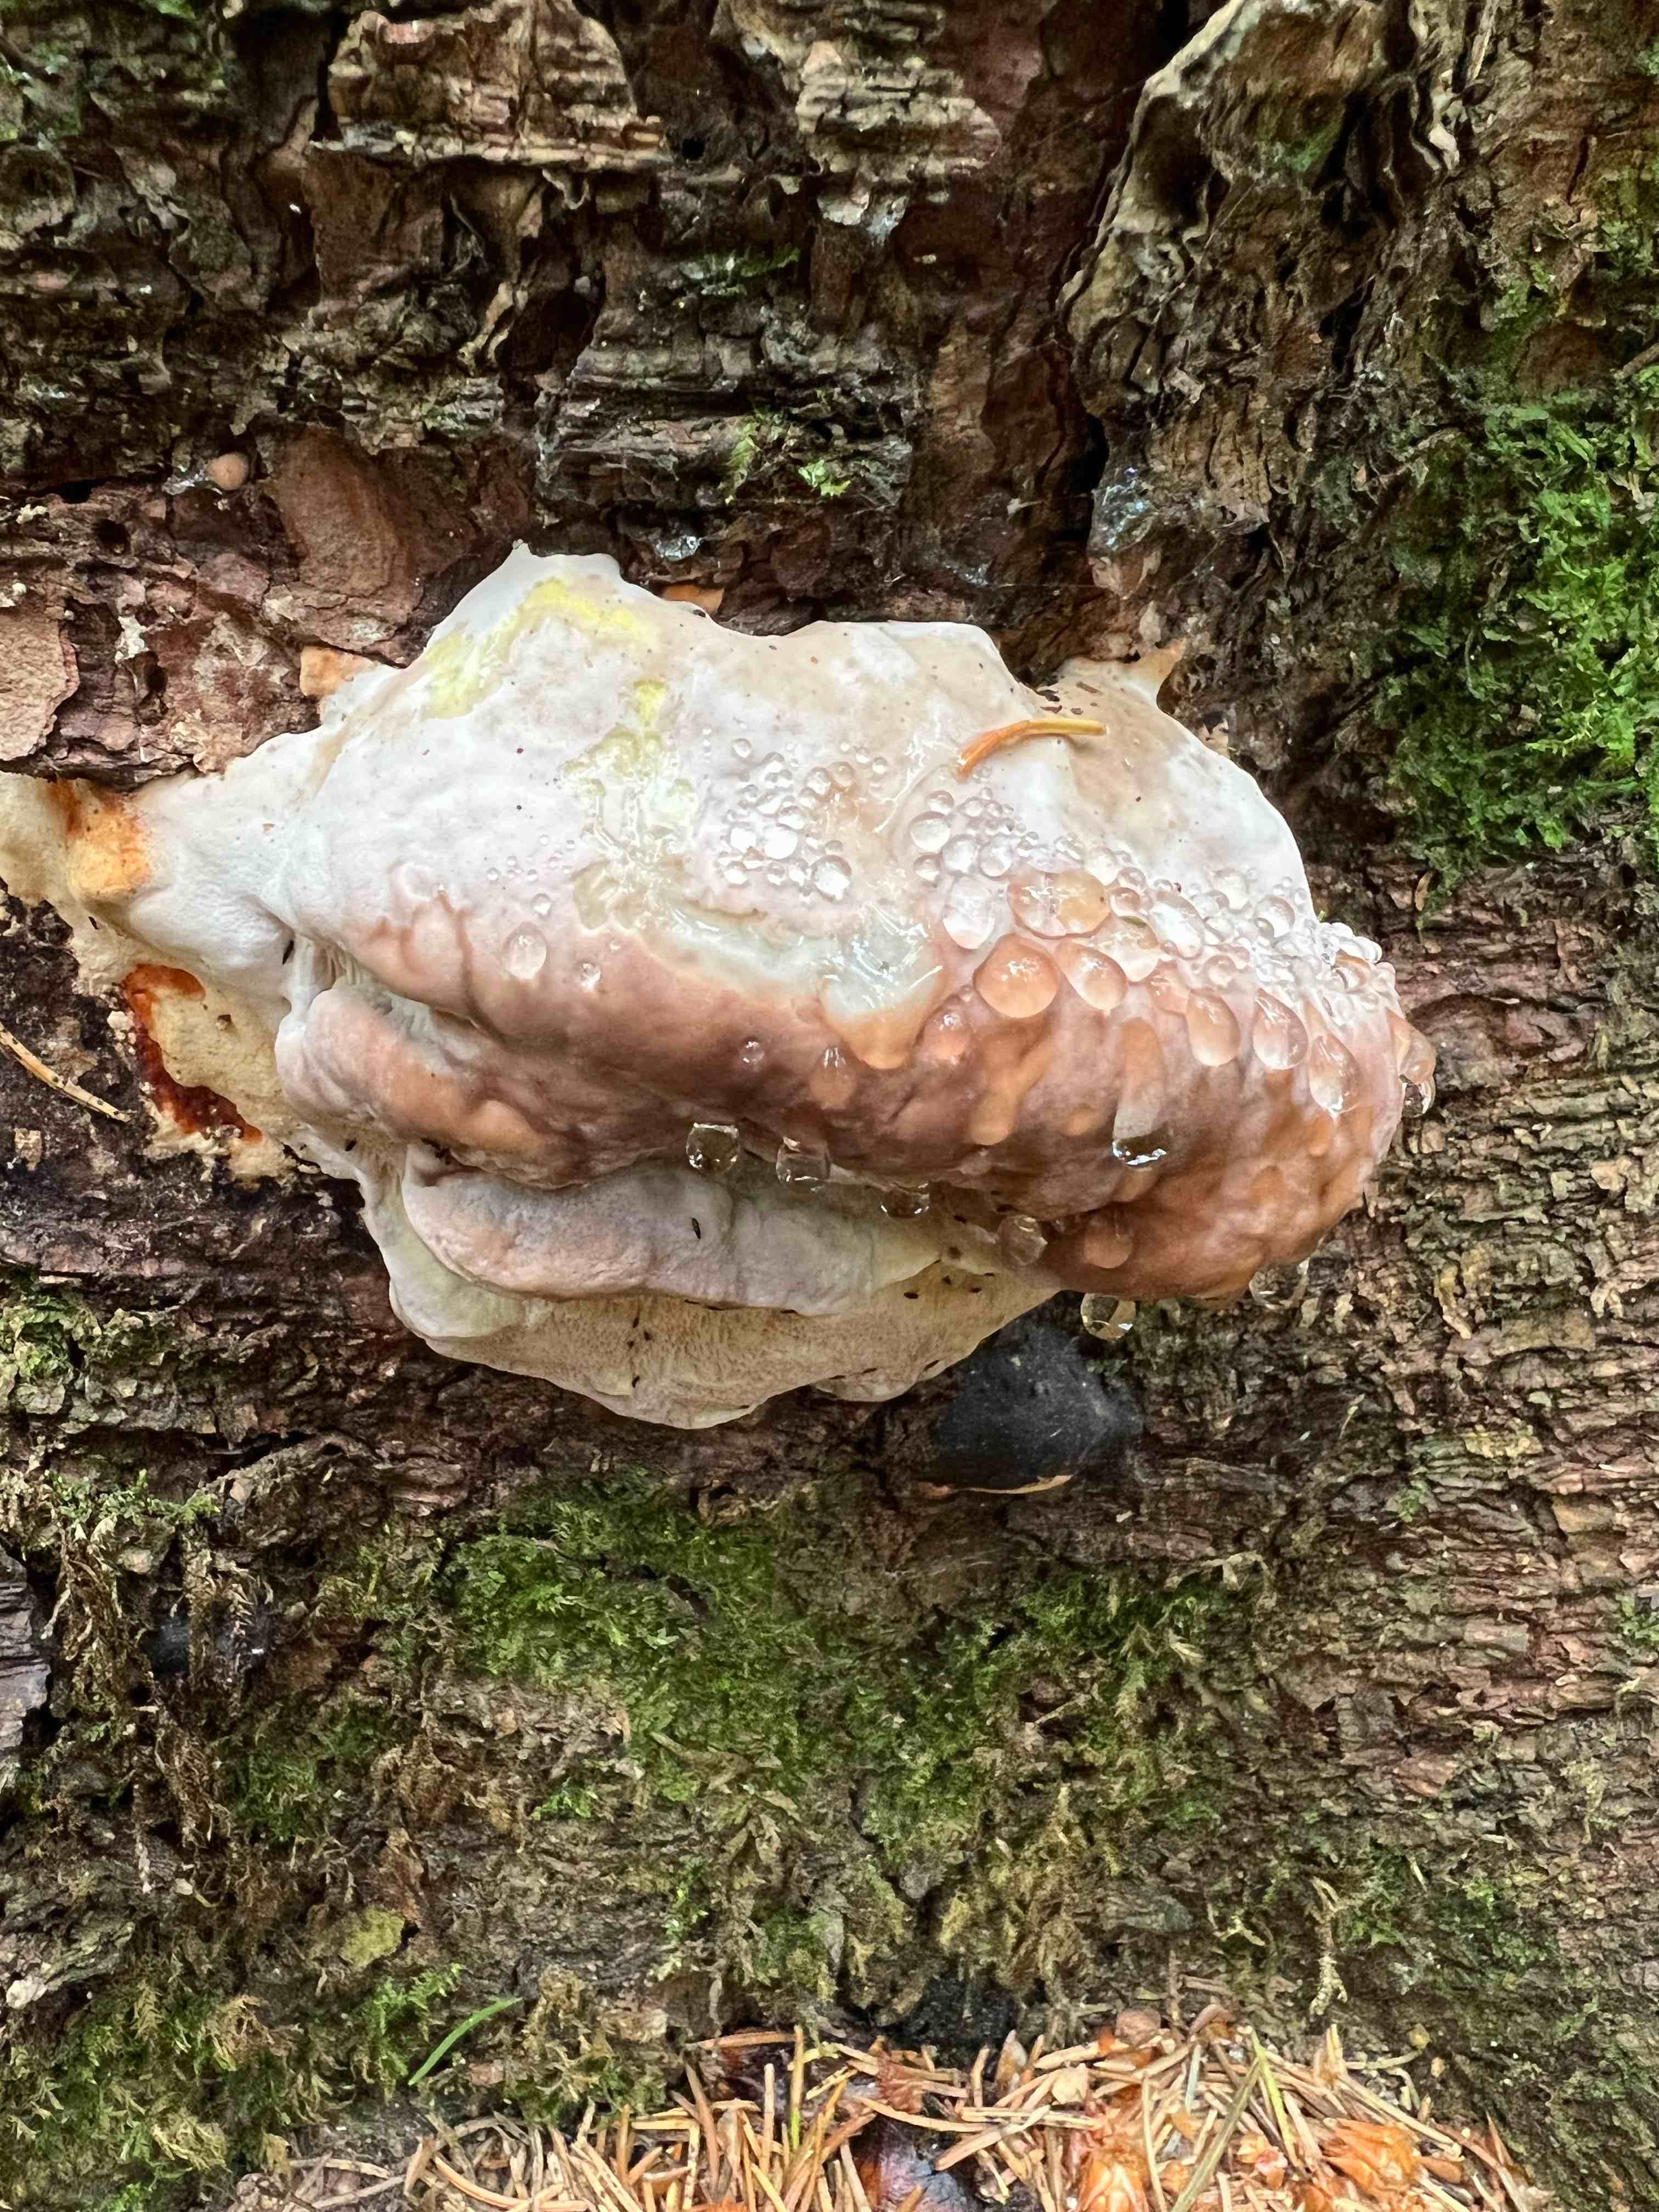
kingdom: Fungi
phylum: Basidiomycota
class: Agaricomycetes
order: Polyporales
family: Fomitopsidaceae
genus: Fomitopsis
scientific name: Fomitopsis pinicola
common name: randbæltet hovporesvamp
